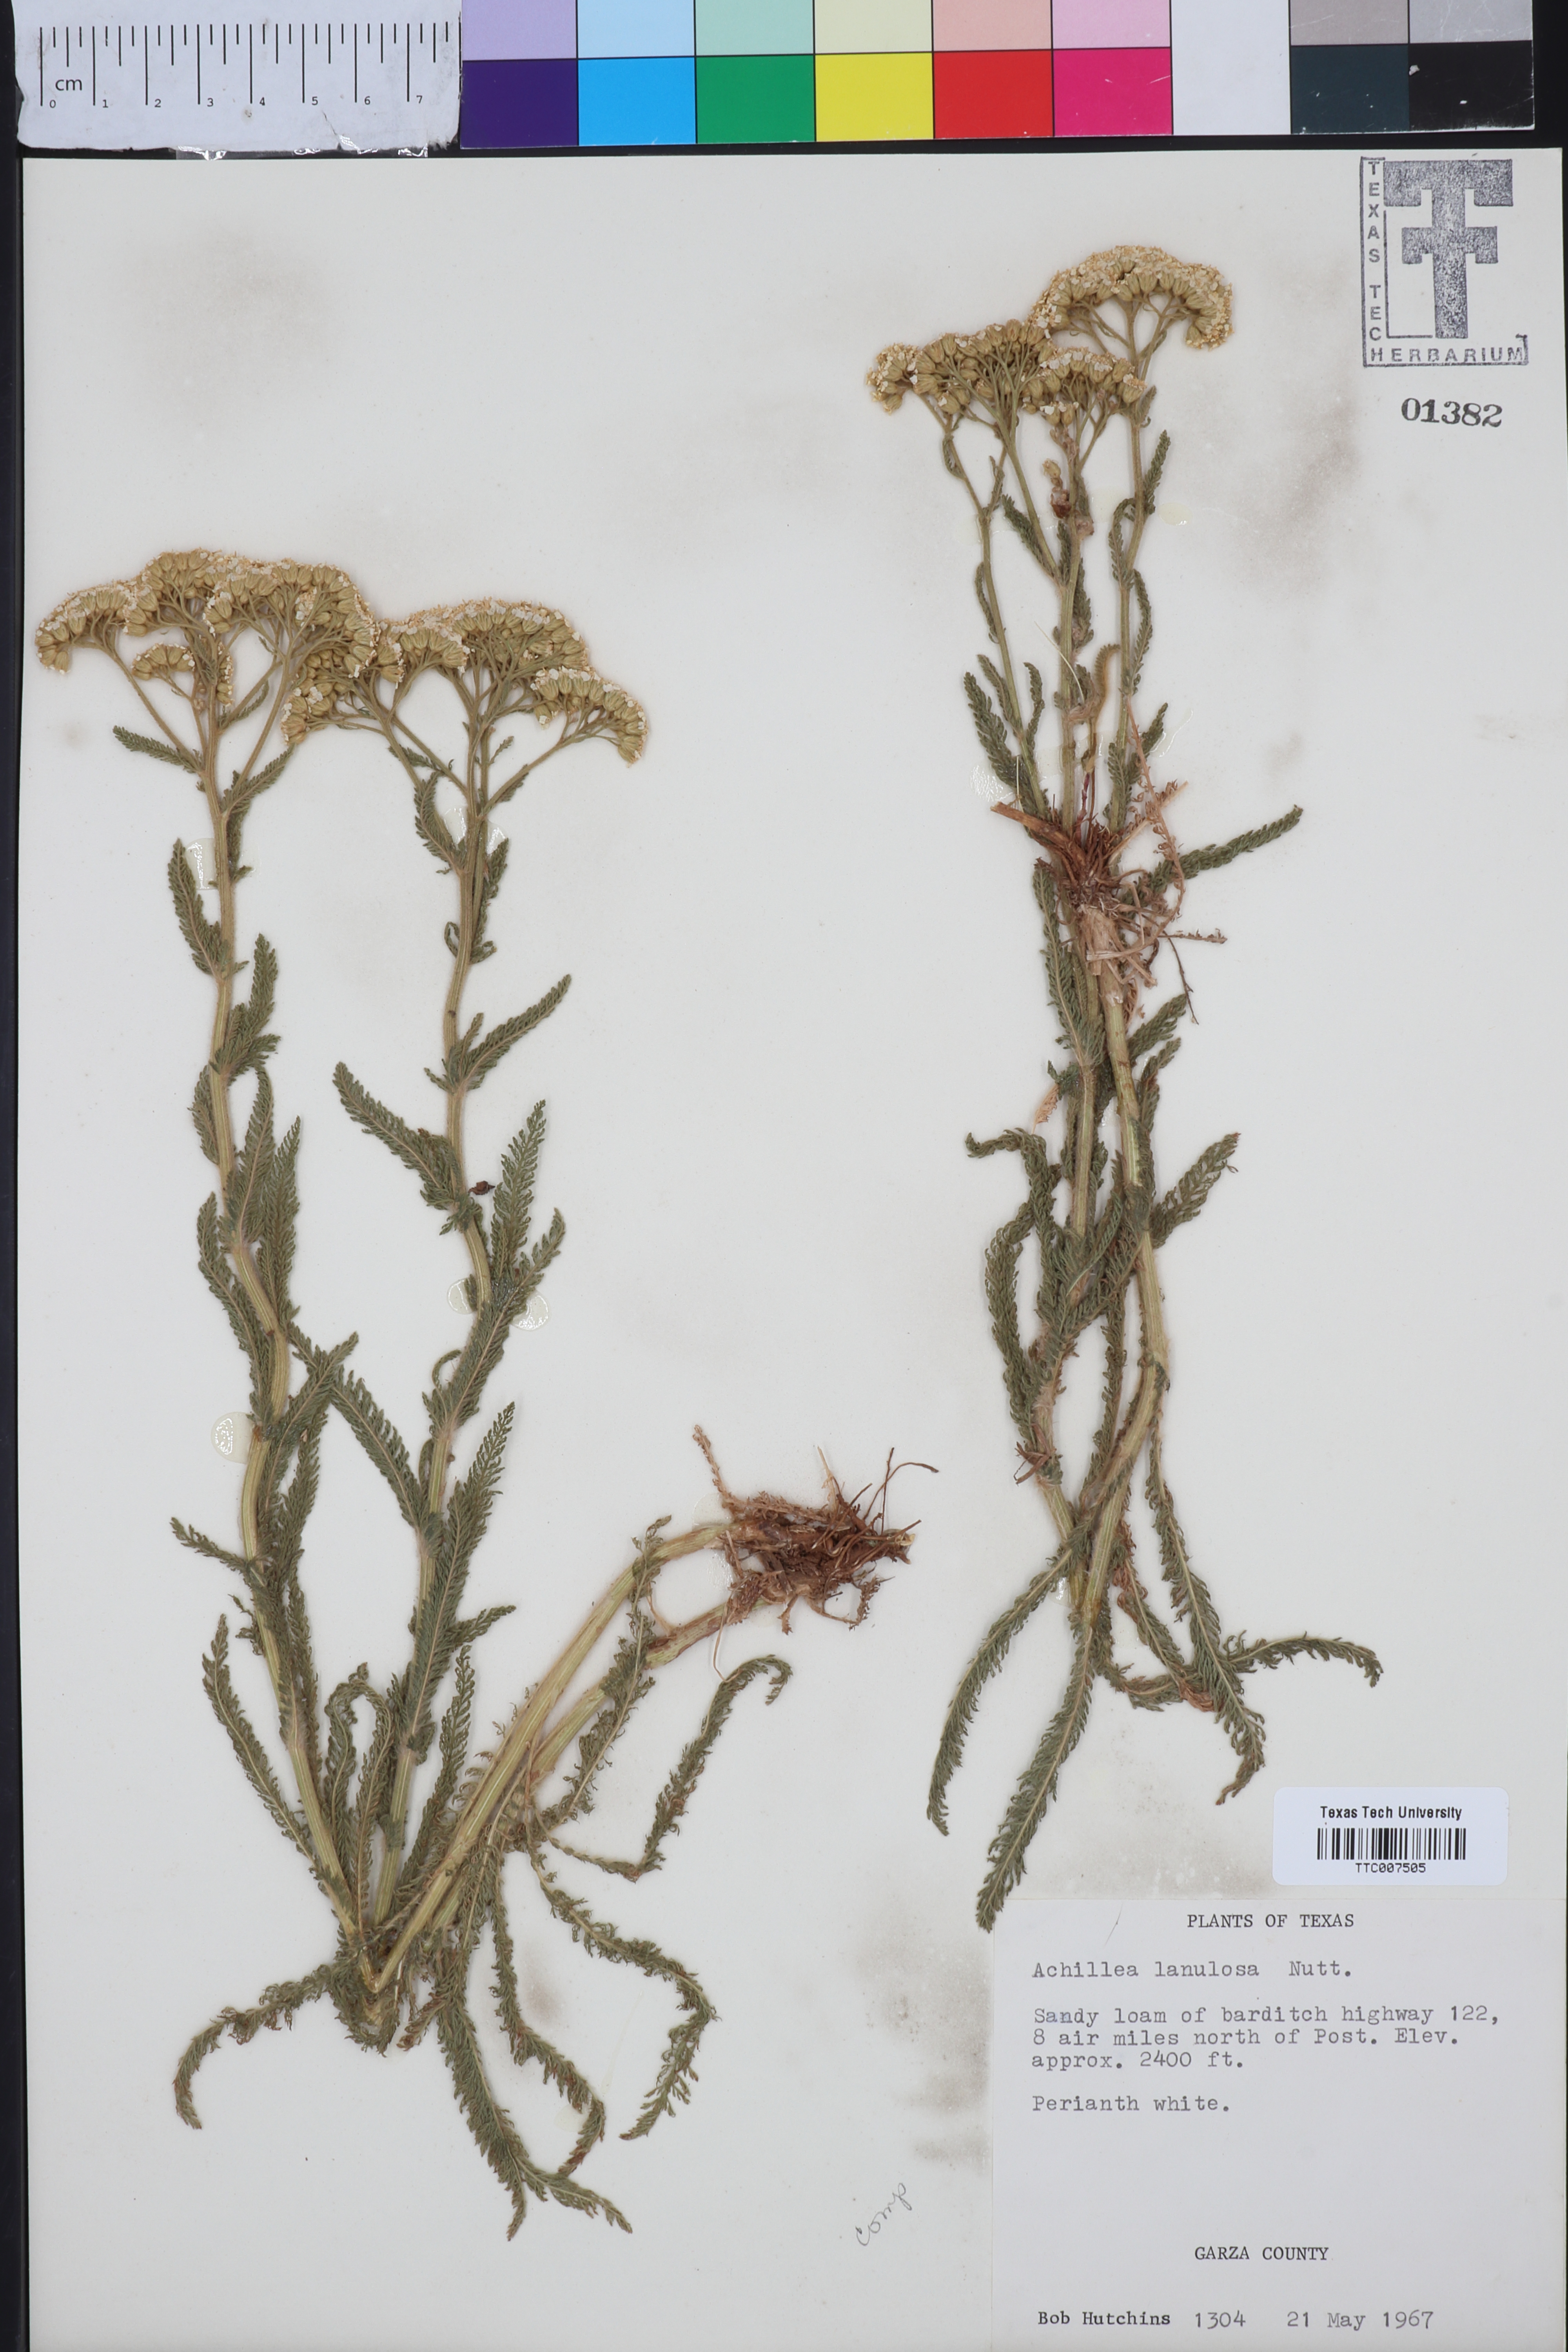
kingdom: Plantae
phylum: Tracheophyta
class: Magnoliopsida
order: Asterales
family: Asteraceae
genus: Achillea
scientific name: Achillea millefolium
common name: Yarrow
